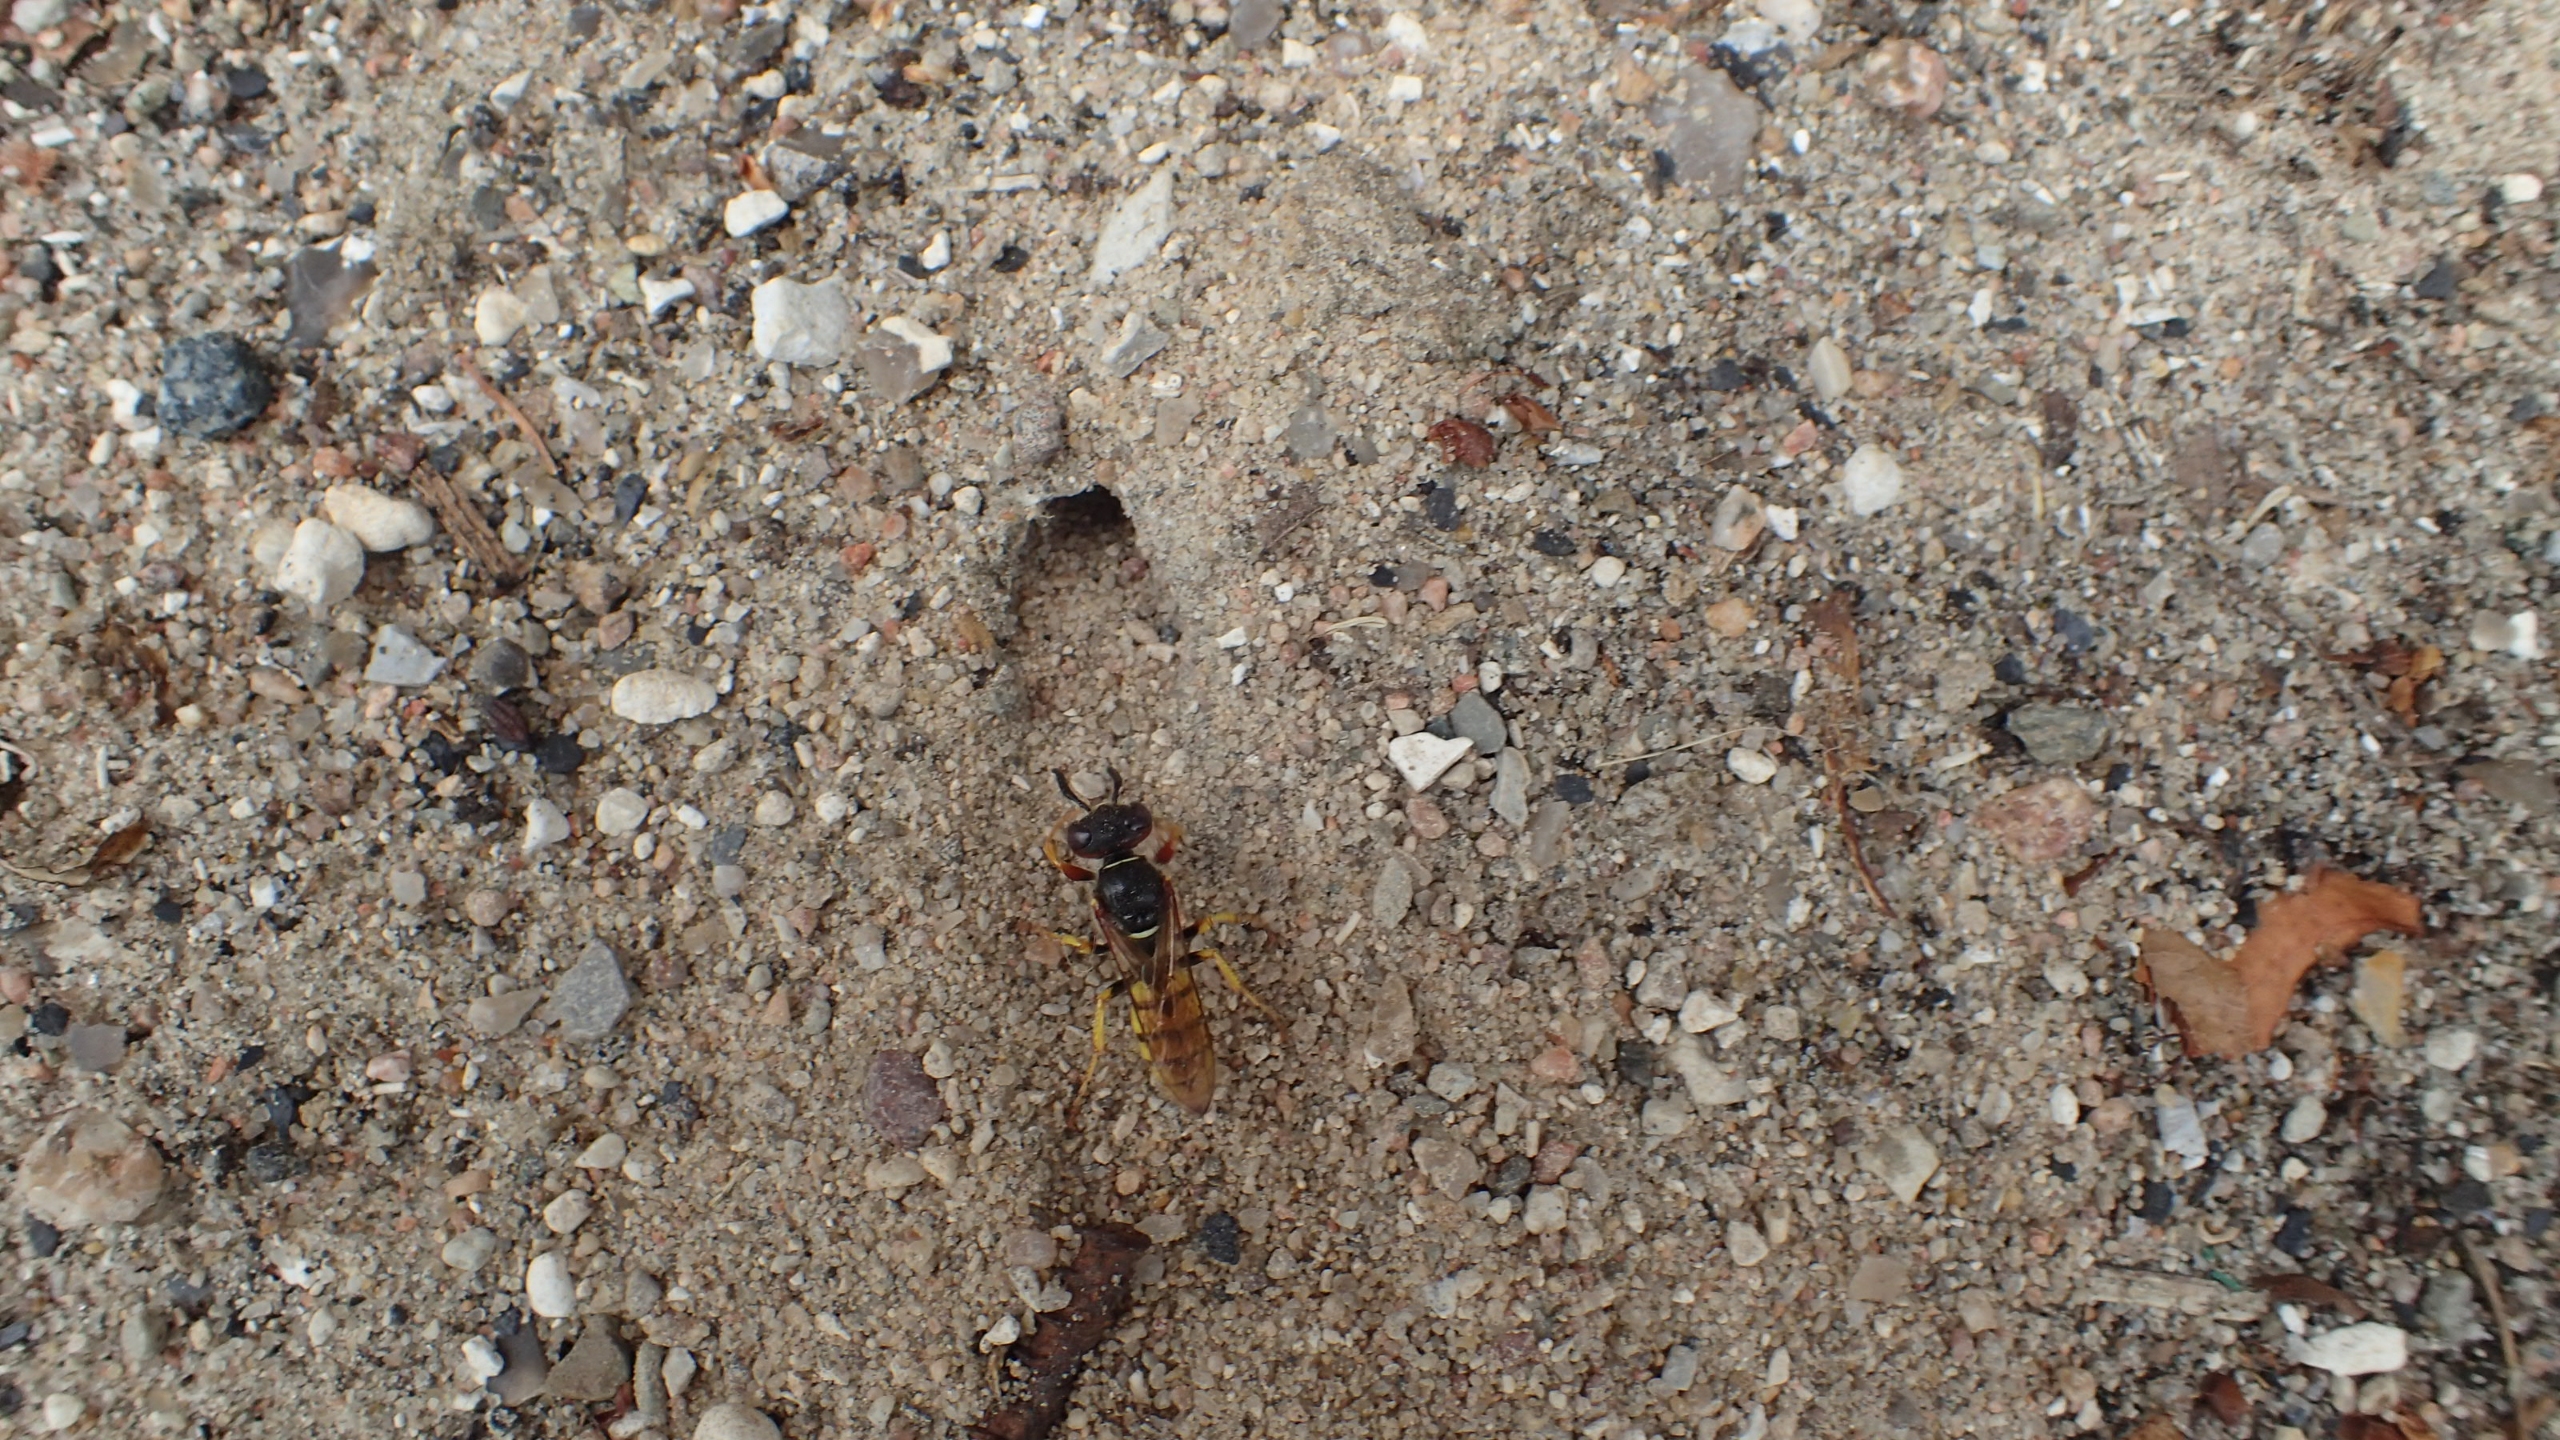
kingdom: Animalia
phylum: Arthropoda
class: Insecta
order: Hymenoptera
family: Crabronidae
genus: Philanthus
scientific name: Philanthus triangulum
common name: Biulv
